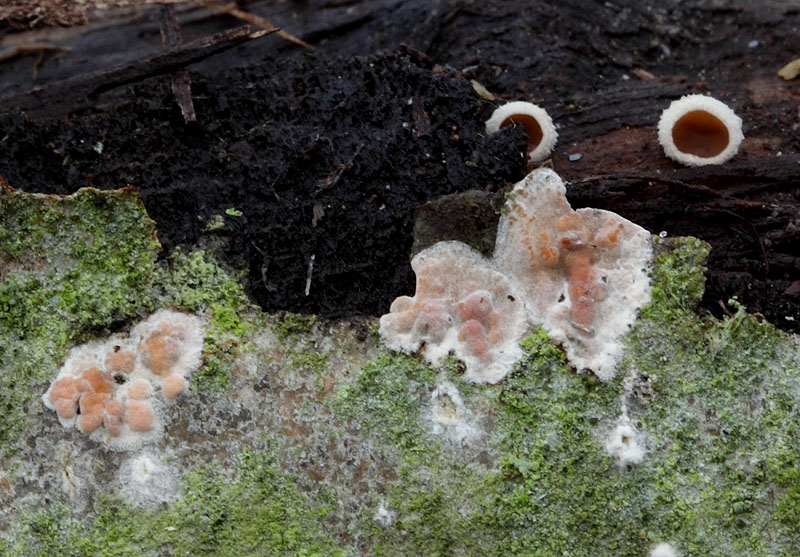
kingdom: Fungi
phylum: Basidiomycota
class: Agaricomycetes
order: Russulales
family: Peniophoraceae
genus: Peniophora
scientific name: Peniophora polygonia
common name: polygon-voksskind
